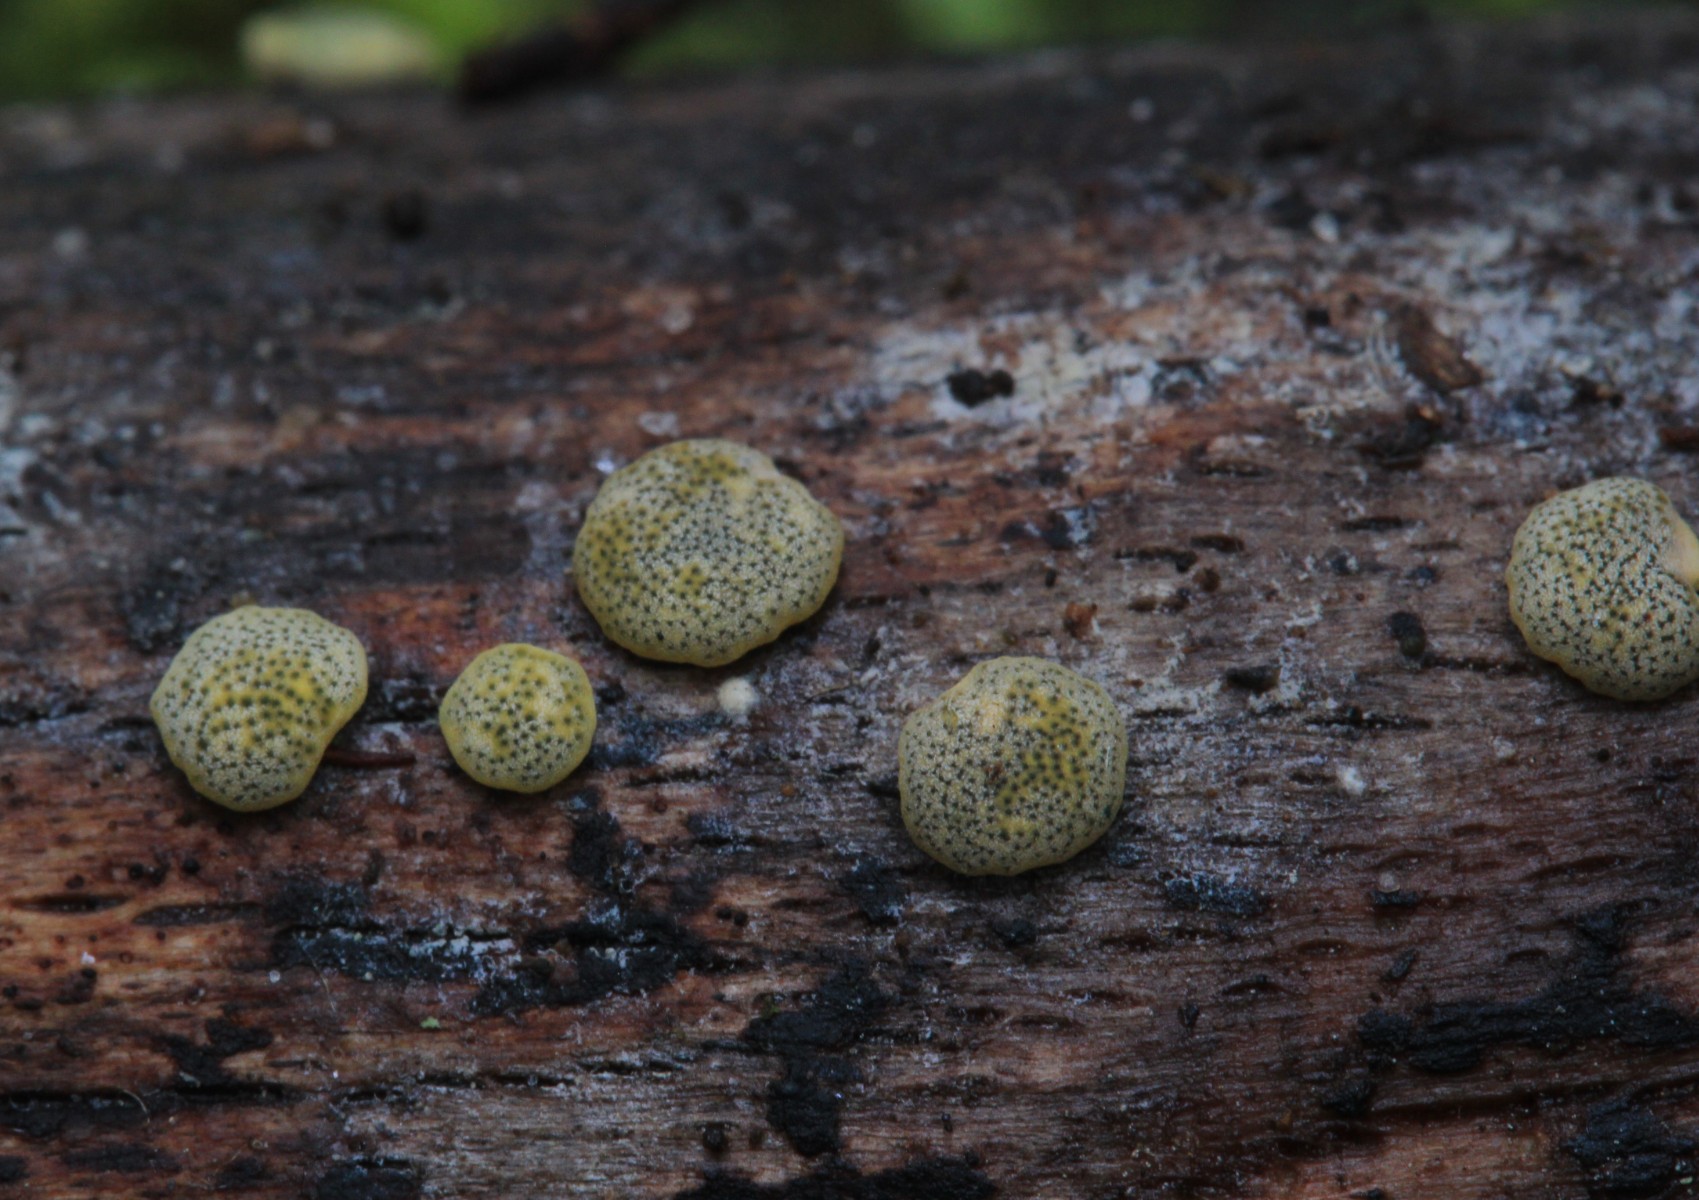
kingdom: Fungi
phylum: Ascomycota
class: Sordariomycetes
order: Hypocreales
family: Hypocreaceae
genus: Trichoderma
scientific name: Trichoderma aureoviride
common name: æggegul kødkerne
